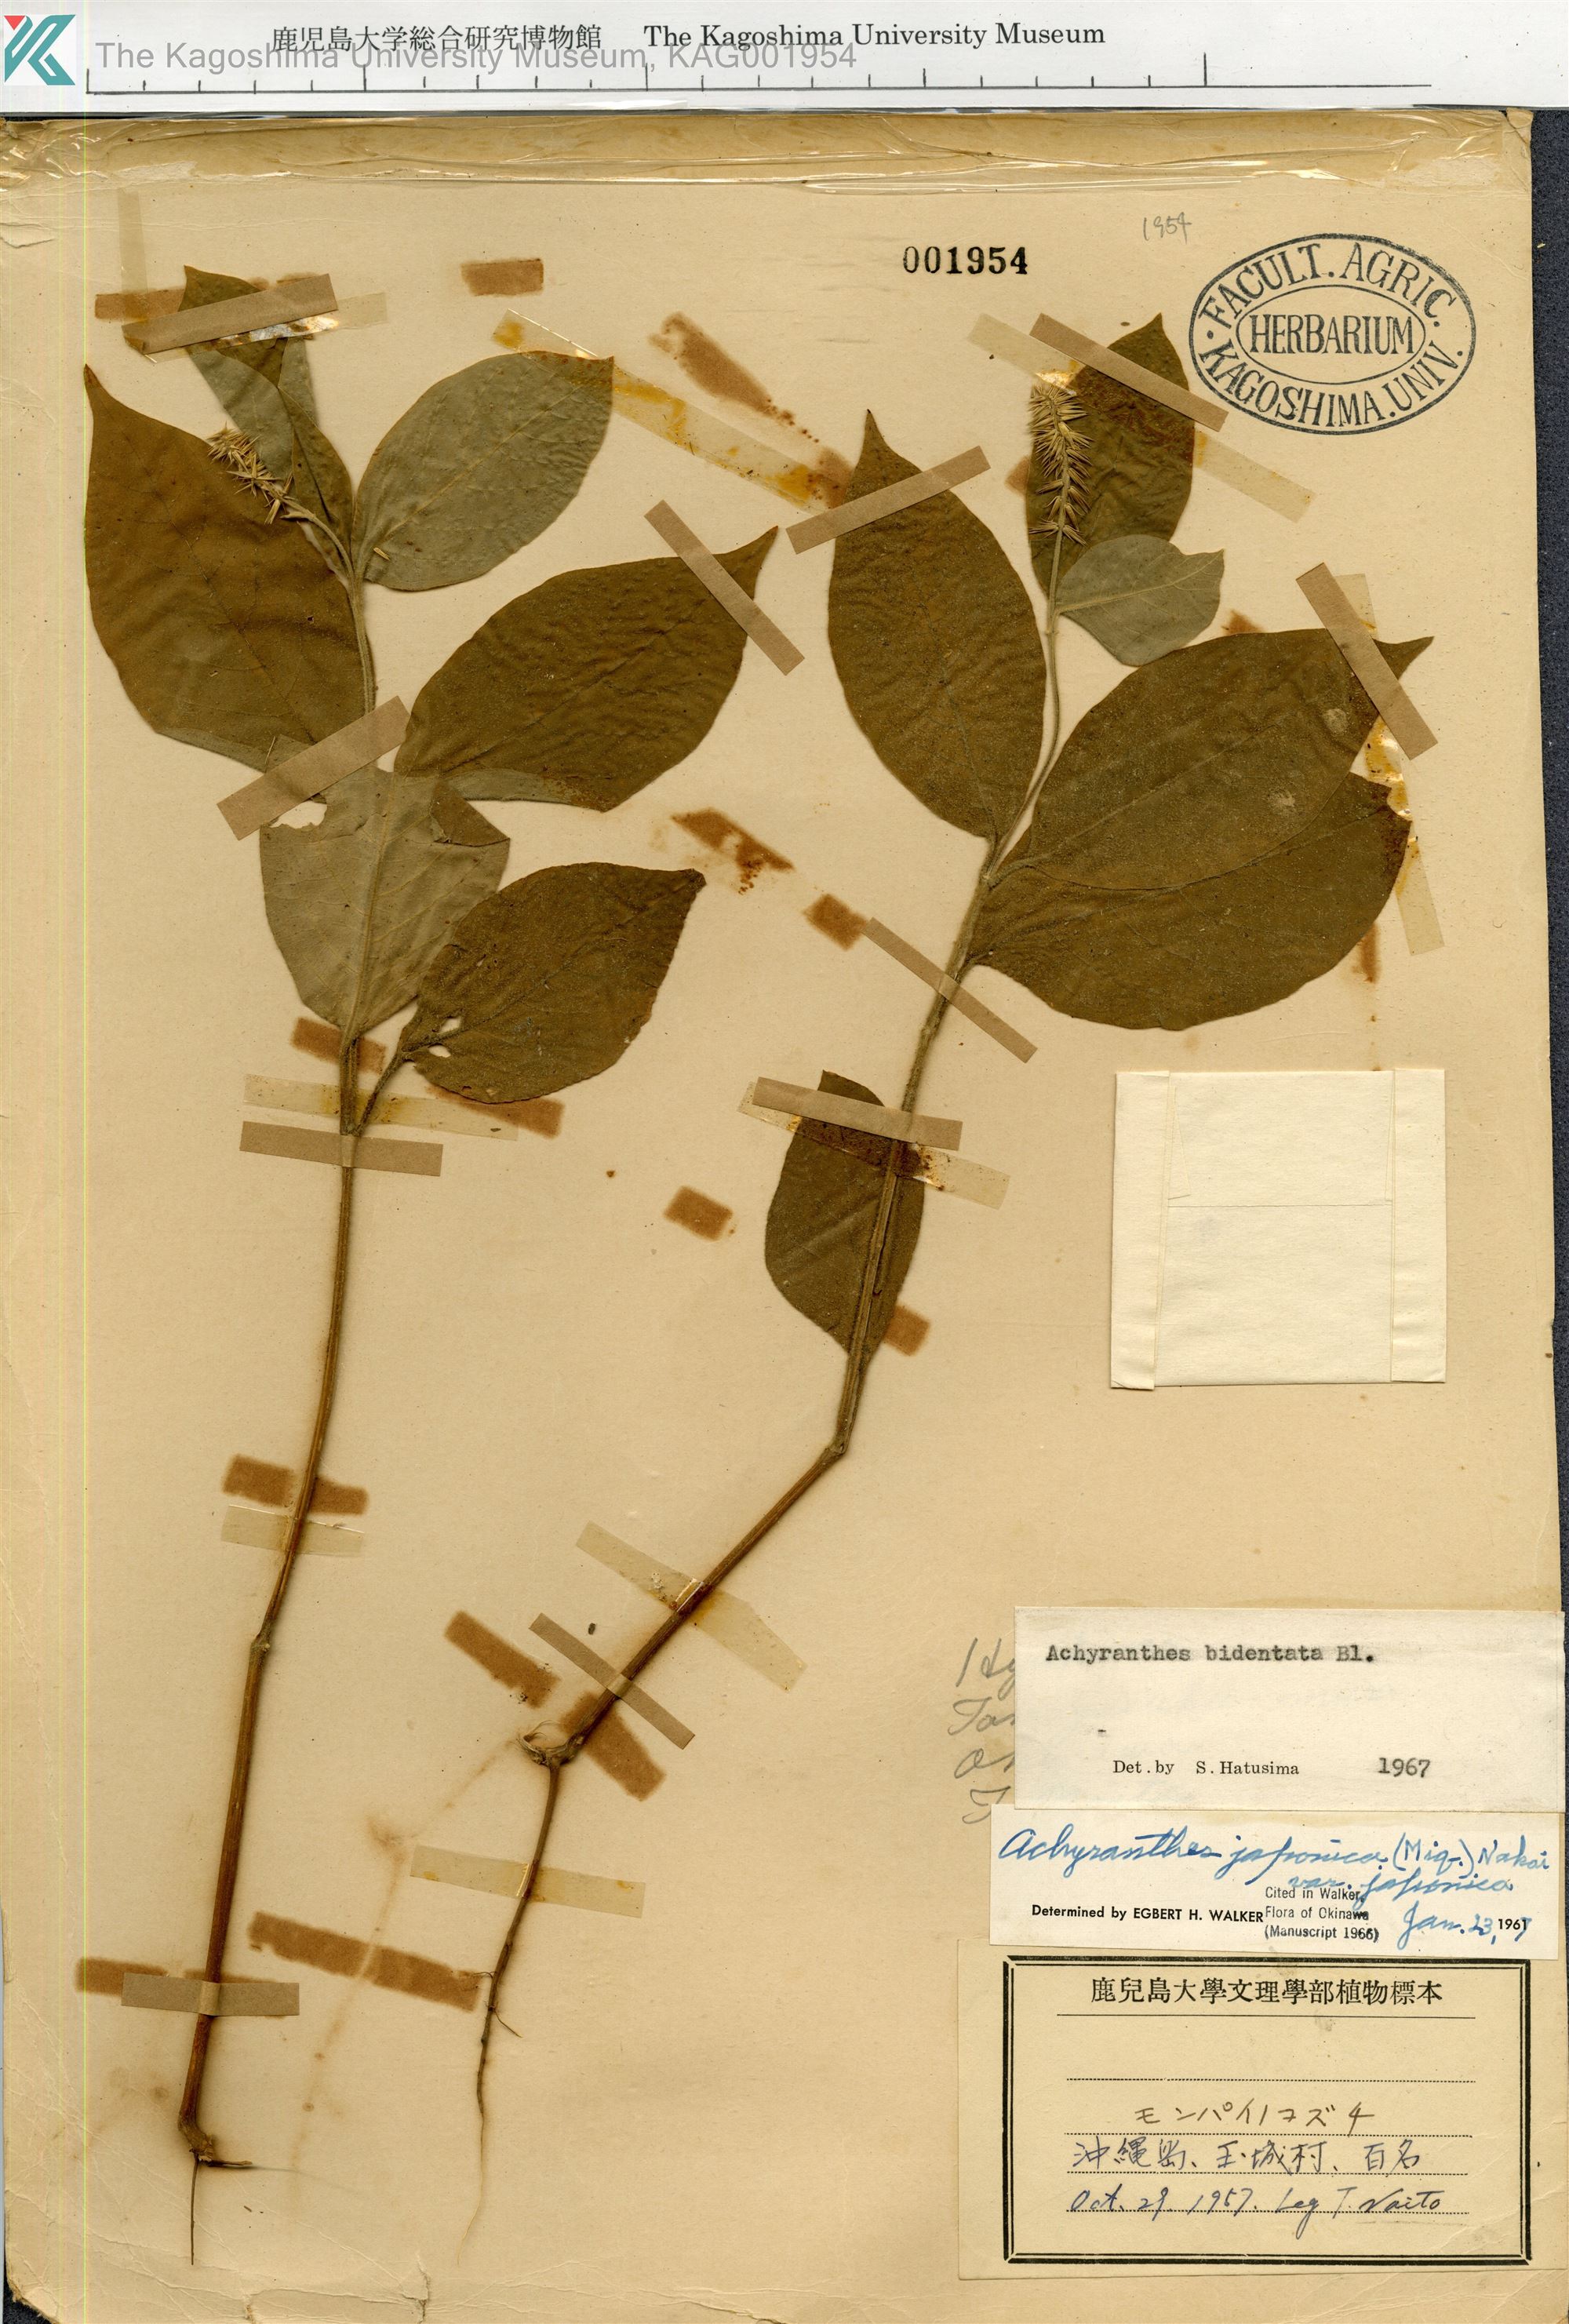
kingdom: Plantae
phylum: Tracheophyta
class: Magnoliopsida
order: Caryophyllales
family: Amaranthaceae
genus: Achyranthes
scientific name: Achyranthes bidentata
